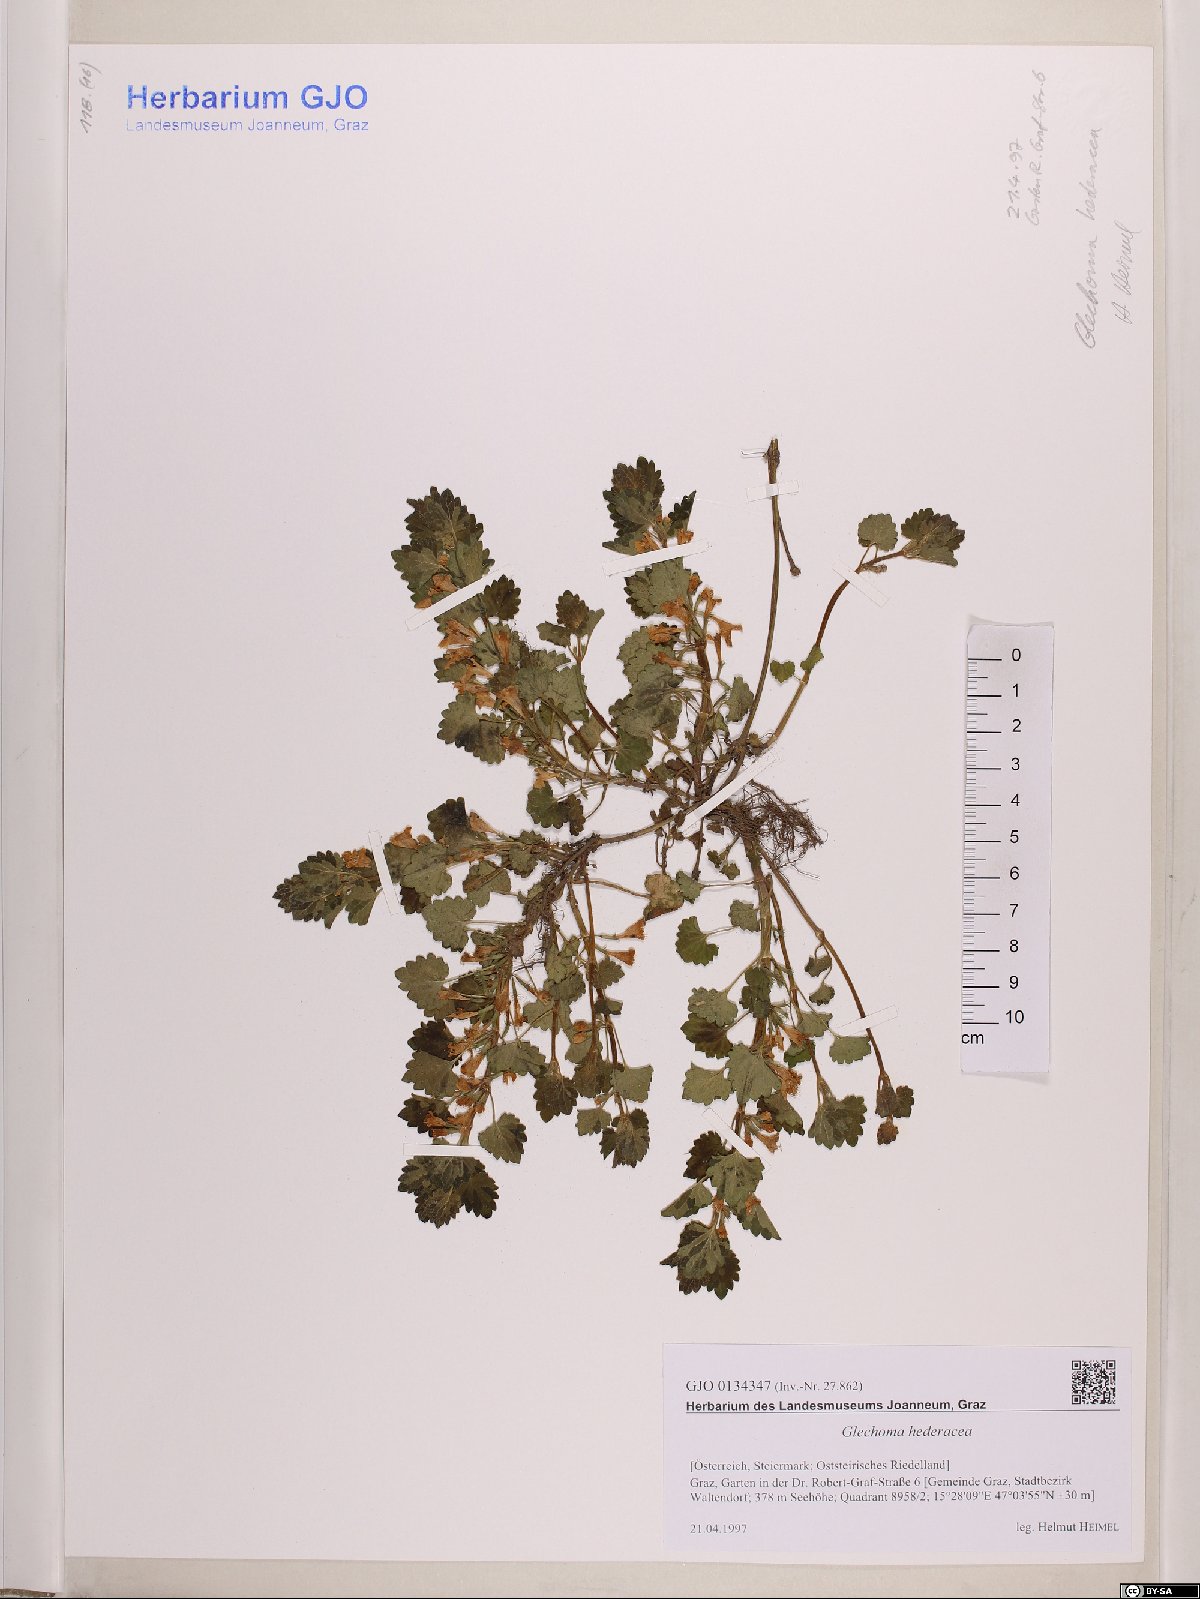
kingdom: Plantae
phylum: Tracheophyta
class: Magnoliopsida
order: Lamiales
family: Lamiaceae
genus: Glechoma
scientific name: Glechoma hederacea
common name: Ground ivy
